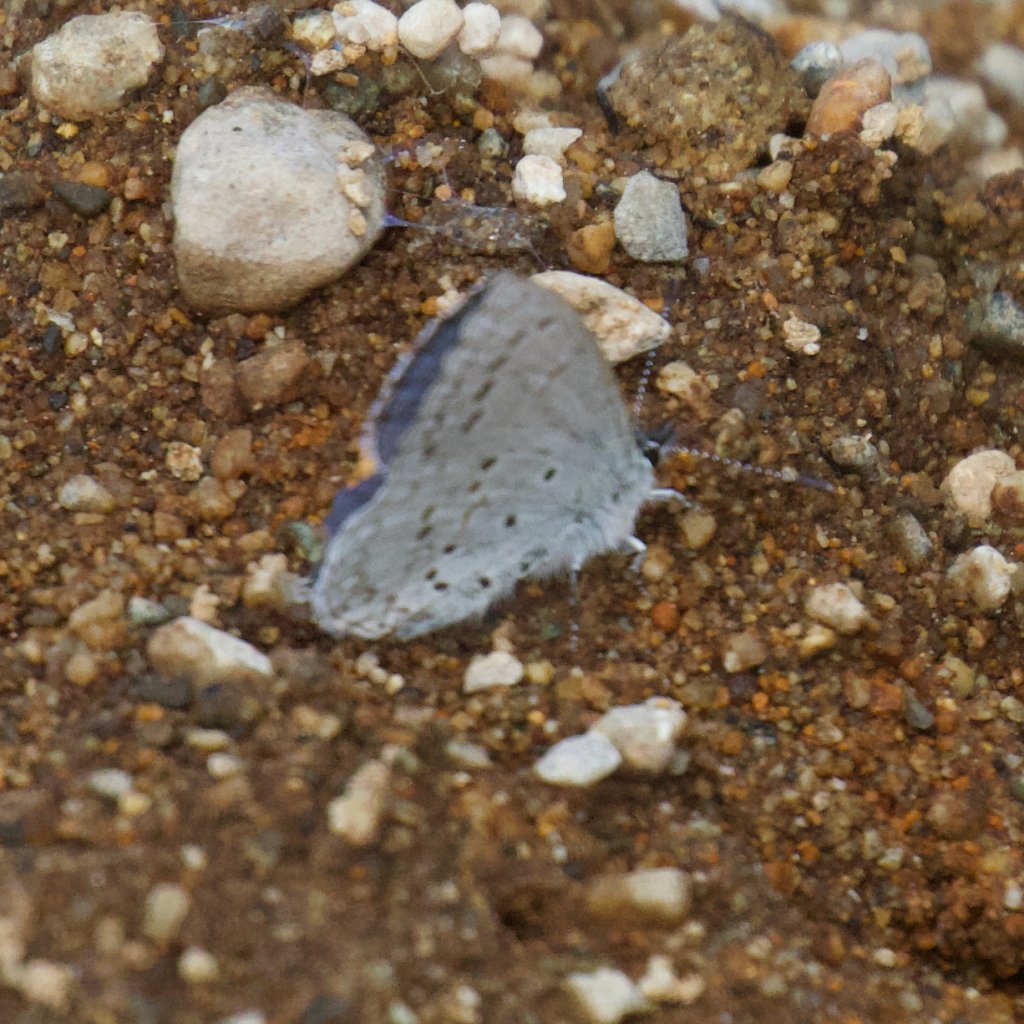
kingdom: Animalia
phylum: Arthropoda
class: Insecta
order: Lepidoptera
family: Lycaenidae
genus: Celastrina
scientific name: Celastrina ladon
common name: Echo Azure
